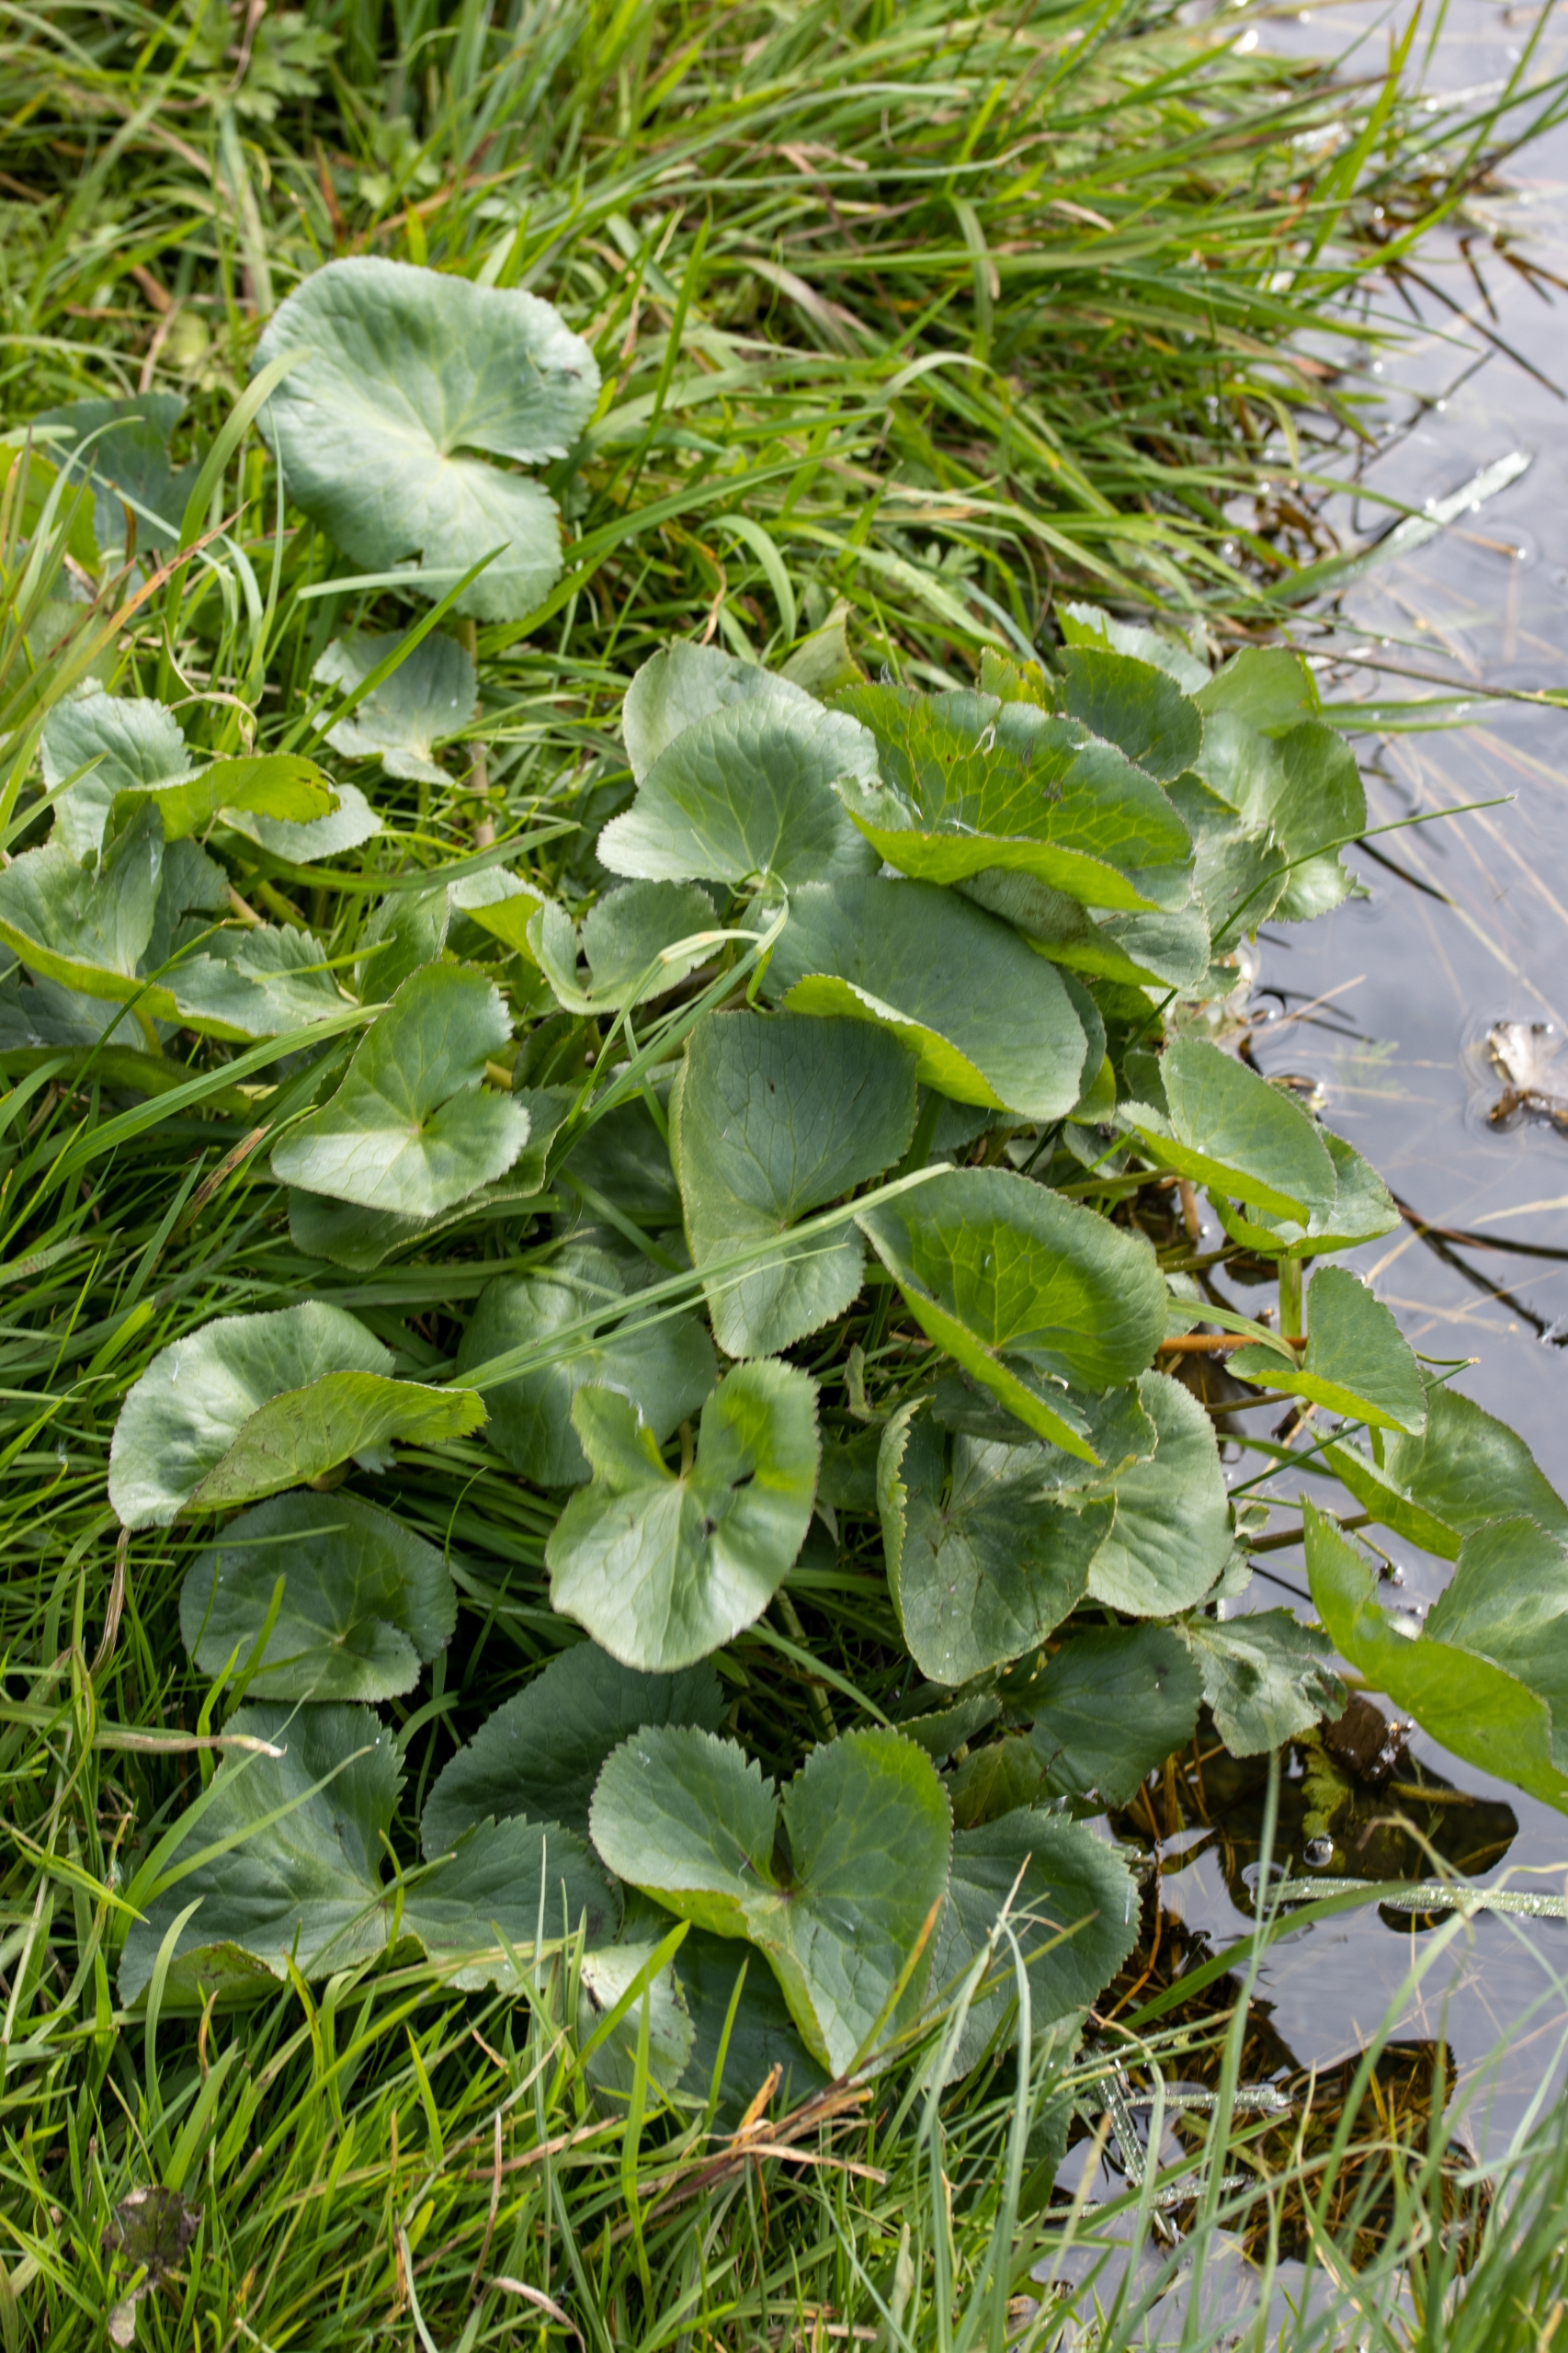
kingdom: Plantae
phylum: Tracheophyta
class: Magnoliopsida
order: Ranunculales
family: Ranunculaceae
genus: Caltha
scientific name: Caltha palustris
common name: Eng-kabbeleje
